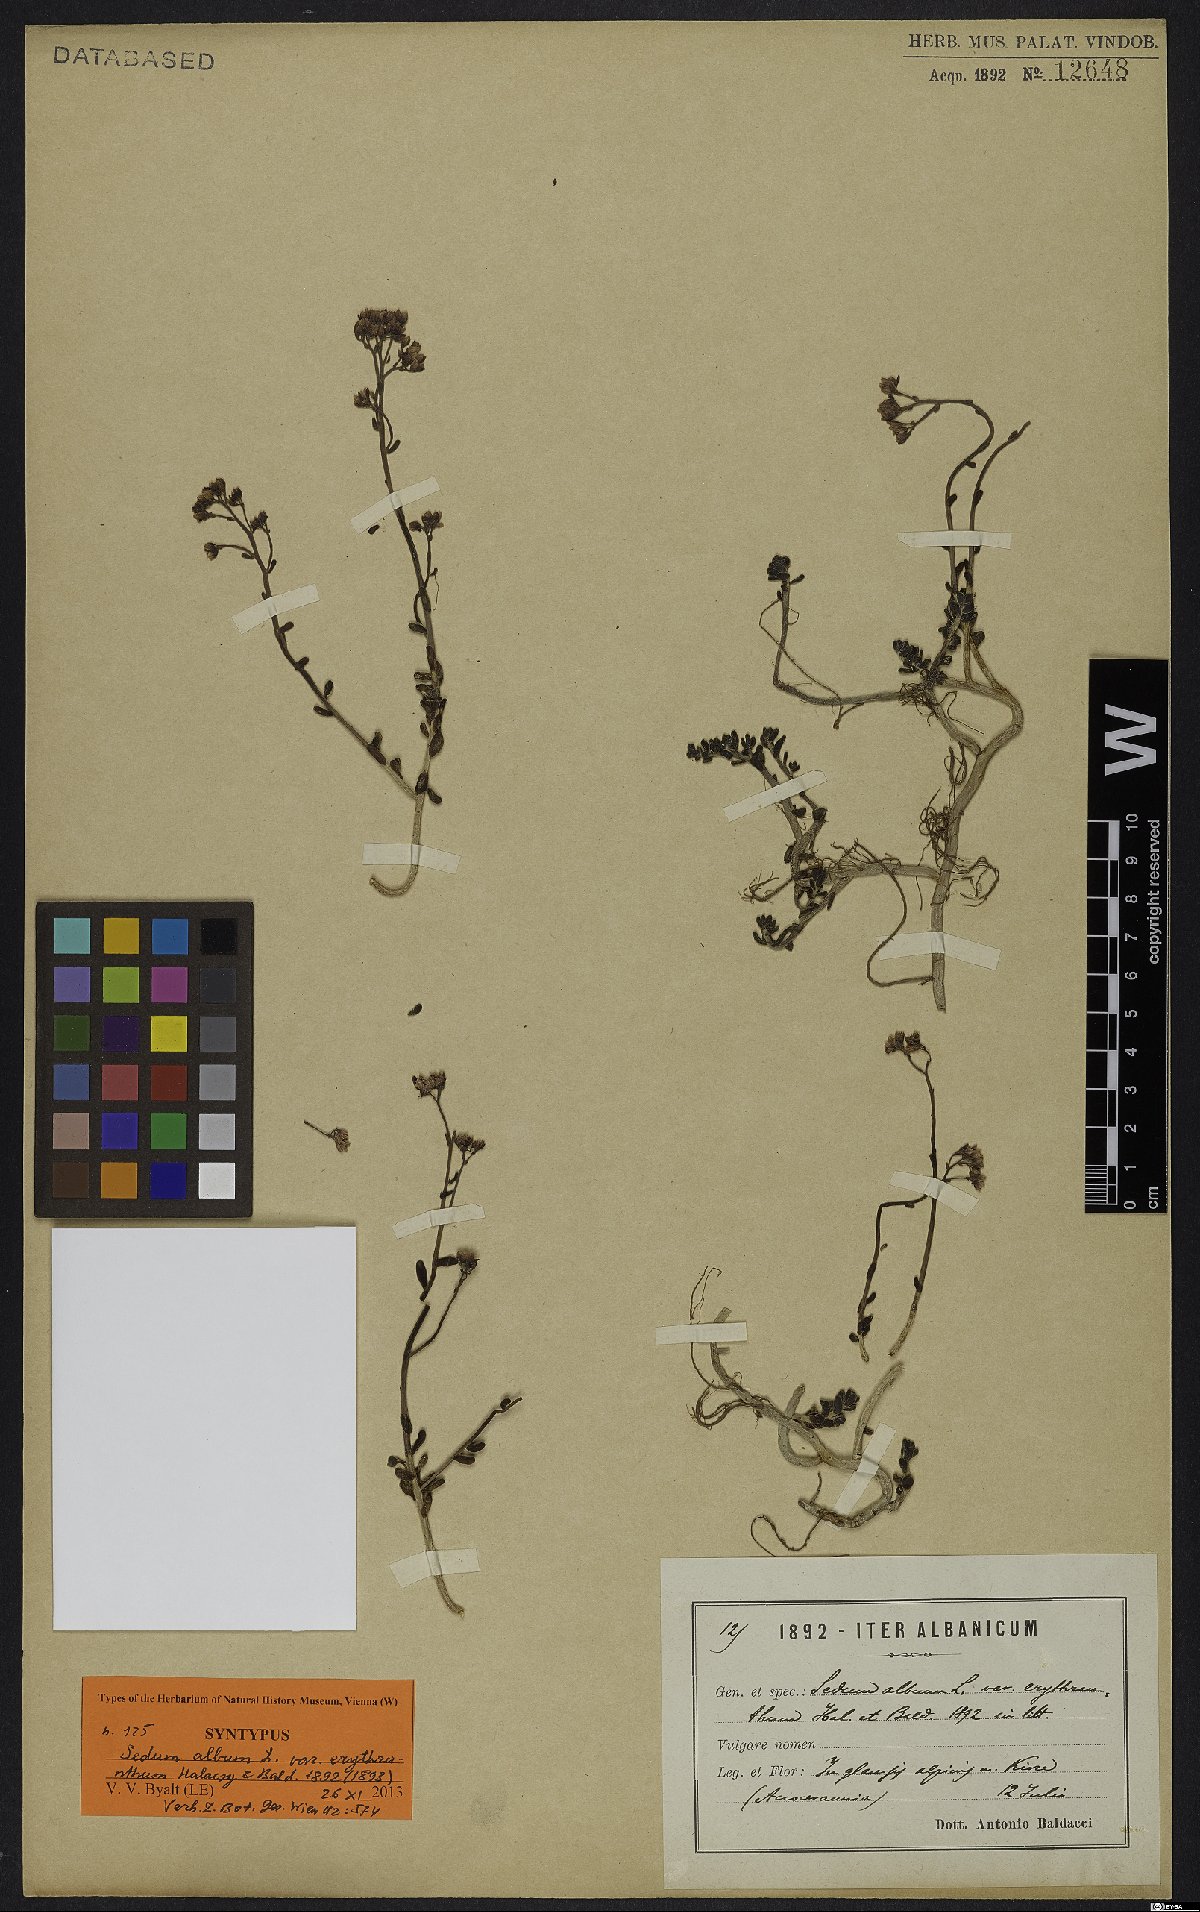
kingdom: Plantae
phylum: Tracheophyta
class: Magnoliopsida
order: Saxifragales
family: Crassulaceae
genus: Sedum
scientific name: Sedum album
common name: White stonecrop
